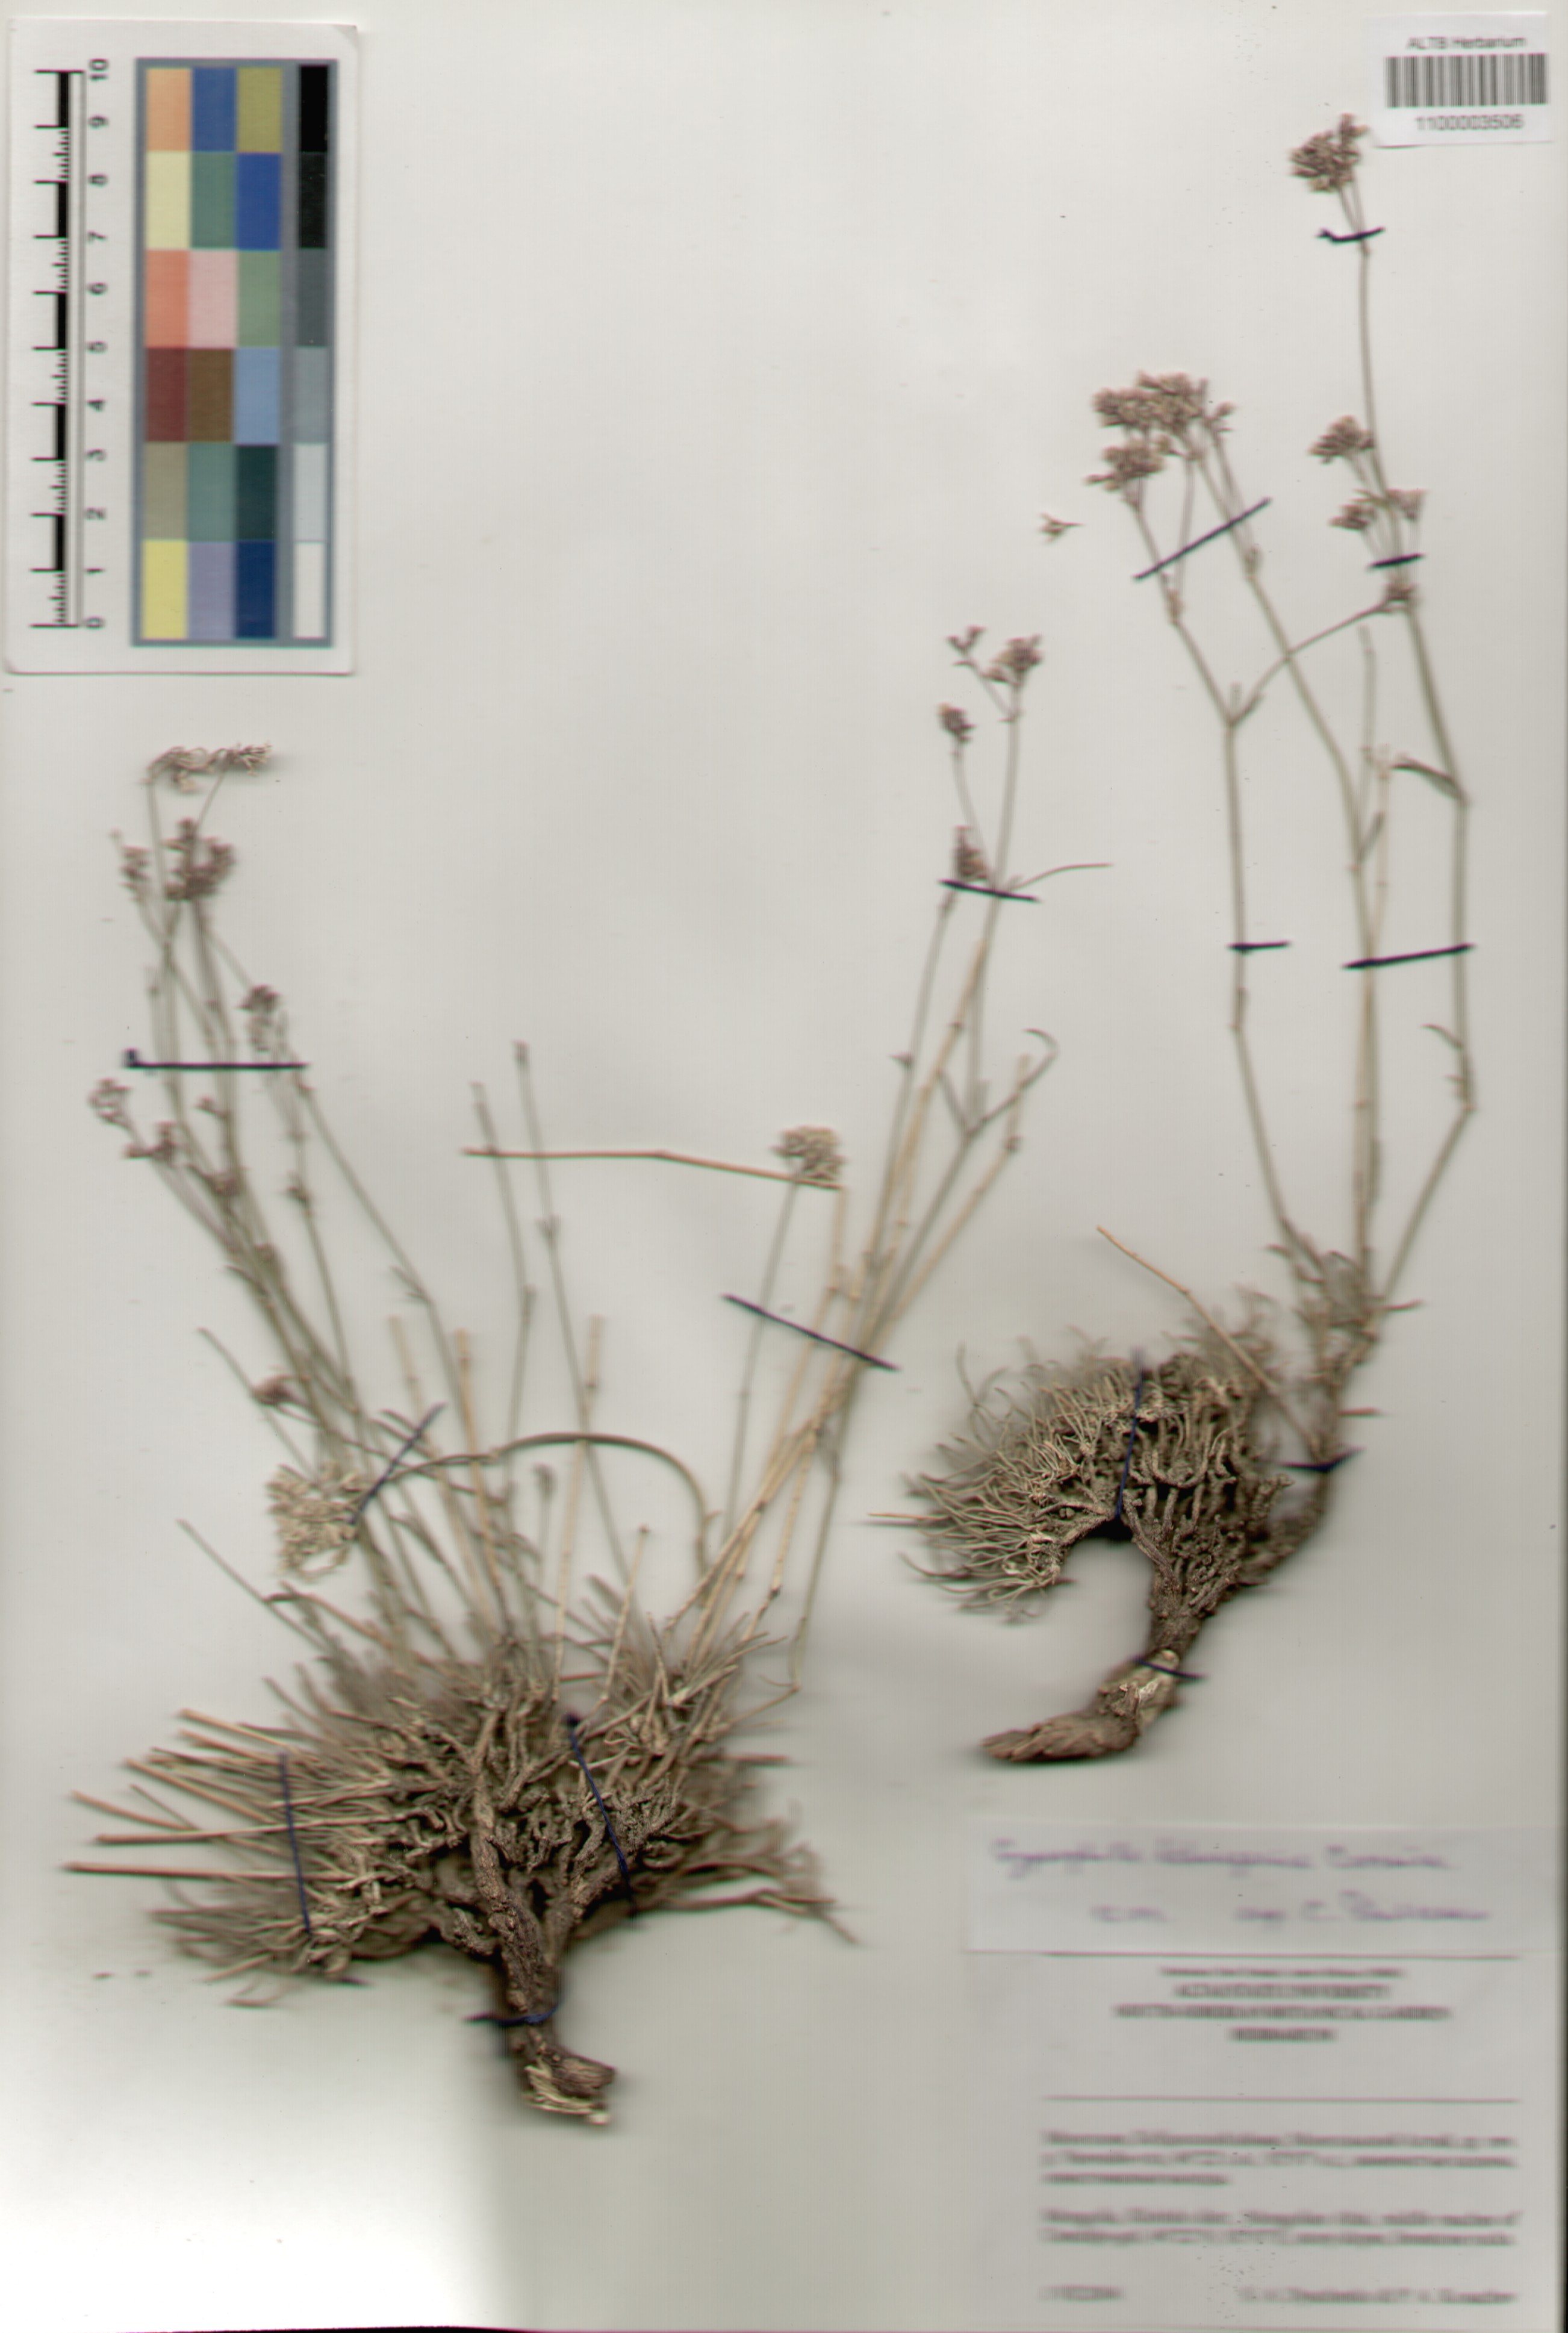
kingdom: Plantae
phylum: Tracheophyta
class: Magnoliopsida
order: Caryophyllales
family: Caryophyllaceae
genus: Gypsophila
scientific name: Gypsophila capituliflora
